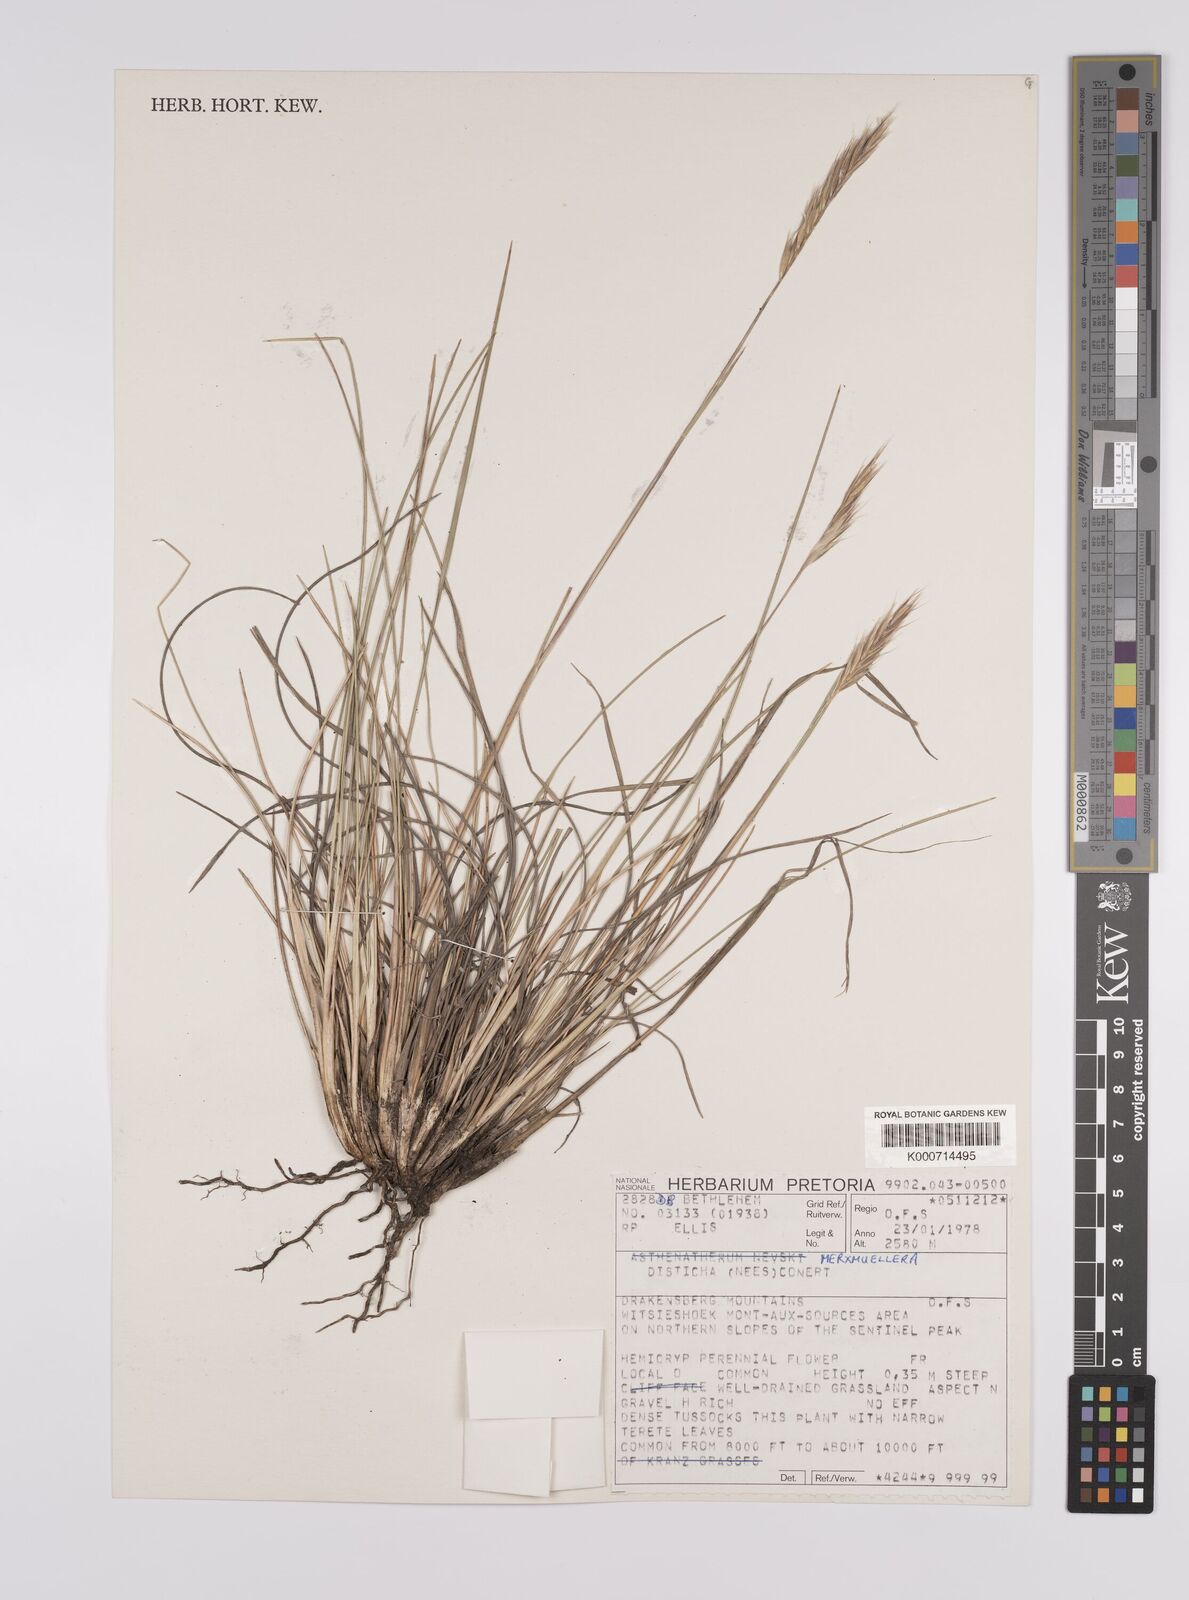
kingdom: Plantae
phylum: Tracheophyta
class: Liliopsida
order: Poales
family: Poaceae
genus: Tenaxia
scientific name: Tenaxia disticha
